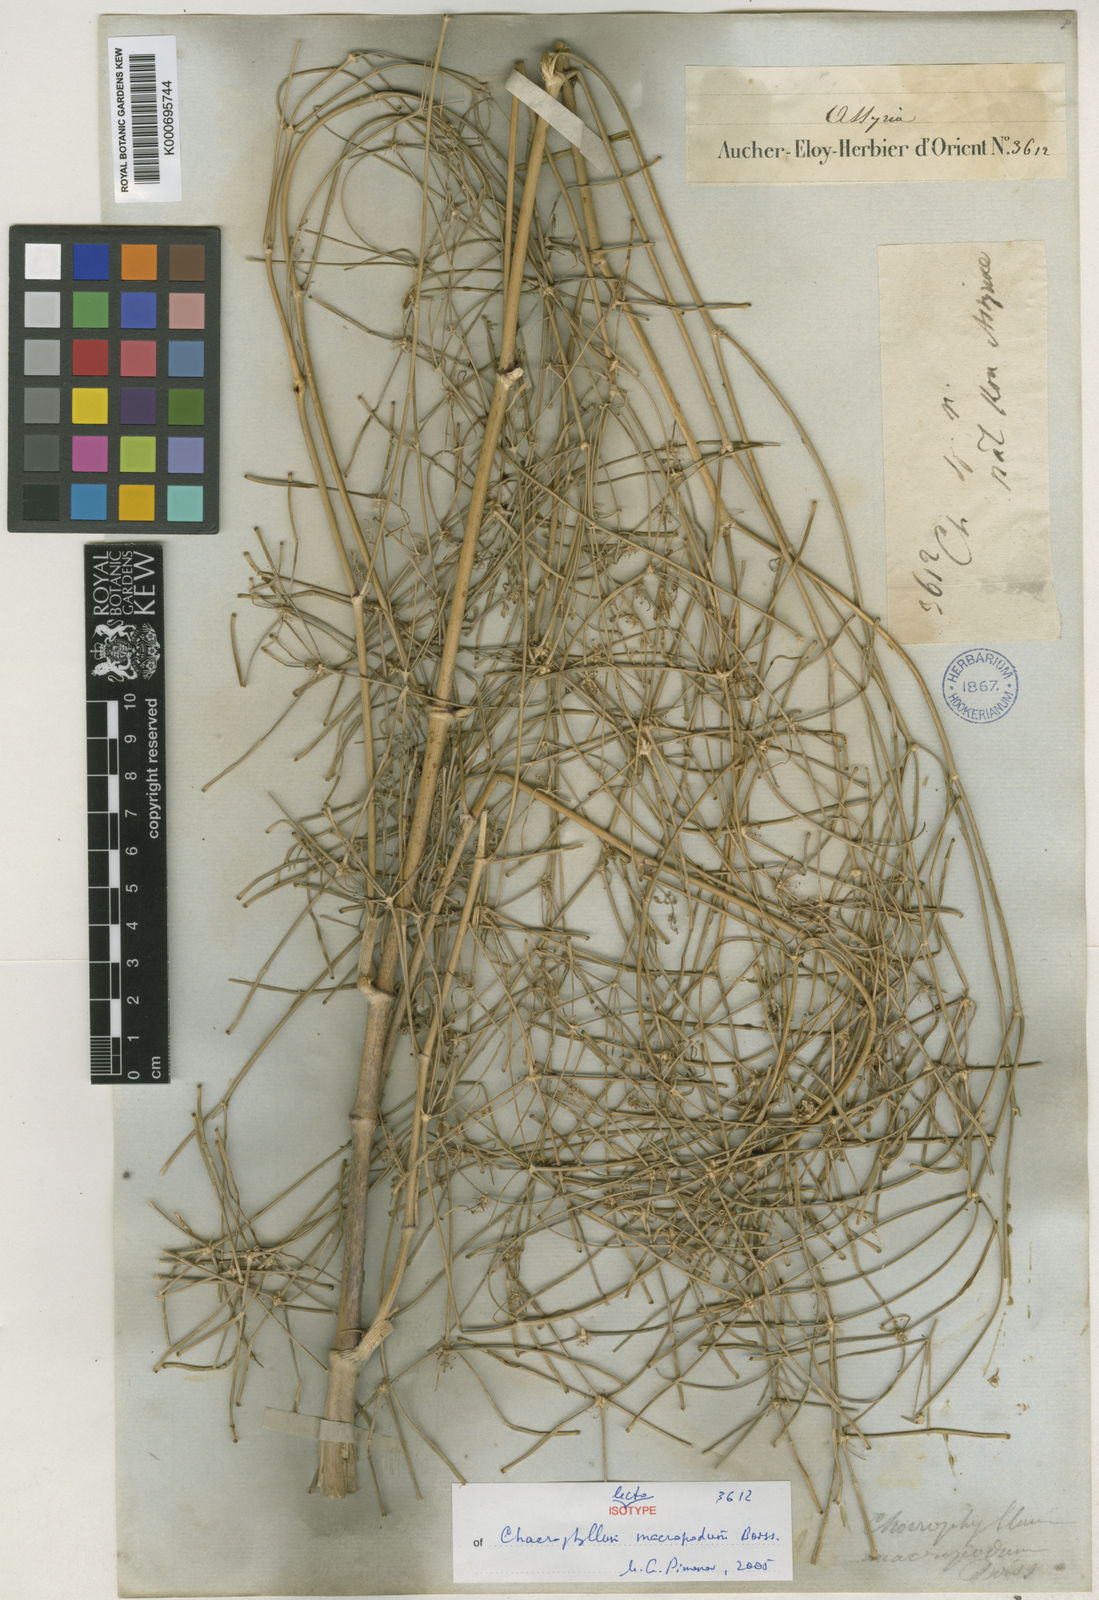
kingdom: Plantae
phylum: Tracheophyta
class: Magnoliopsida
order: Apiales
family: Apiaceae
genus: Chaerophyllum
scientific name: Chaerophyllum macropodum
